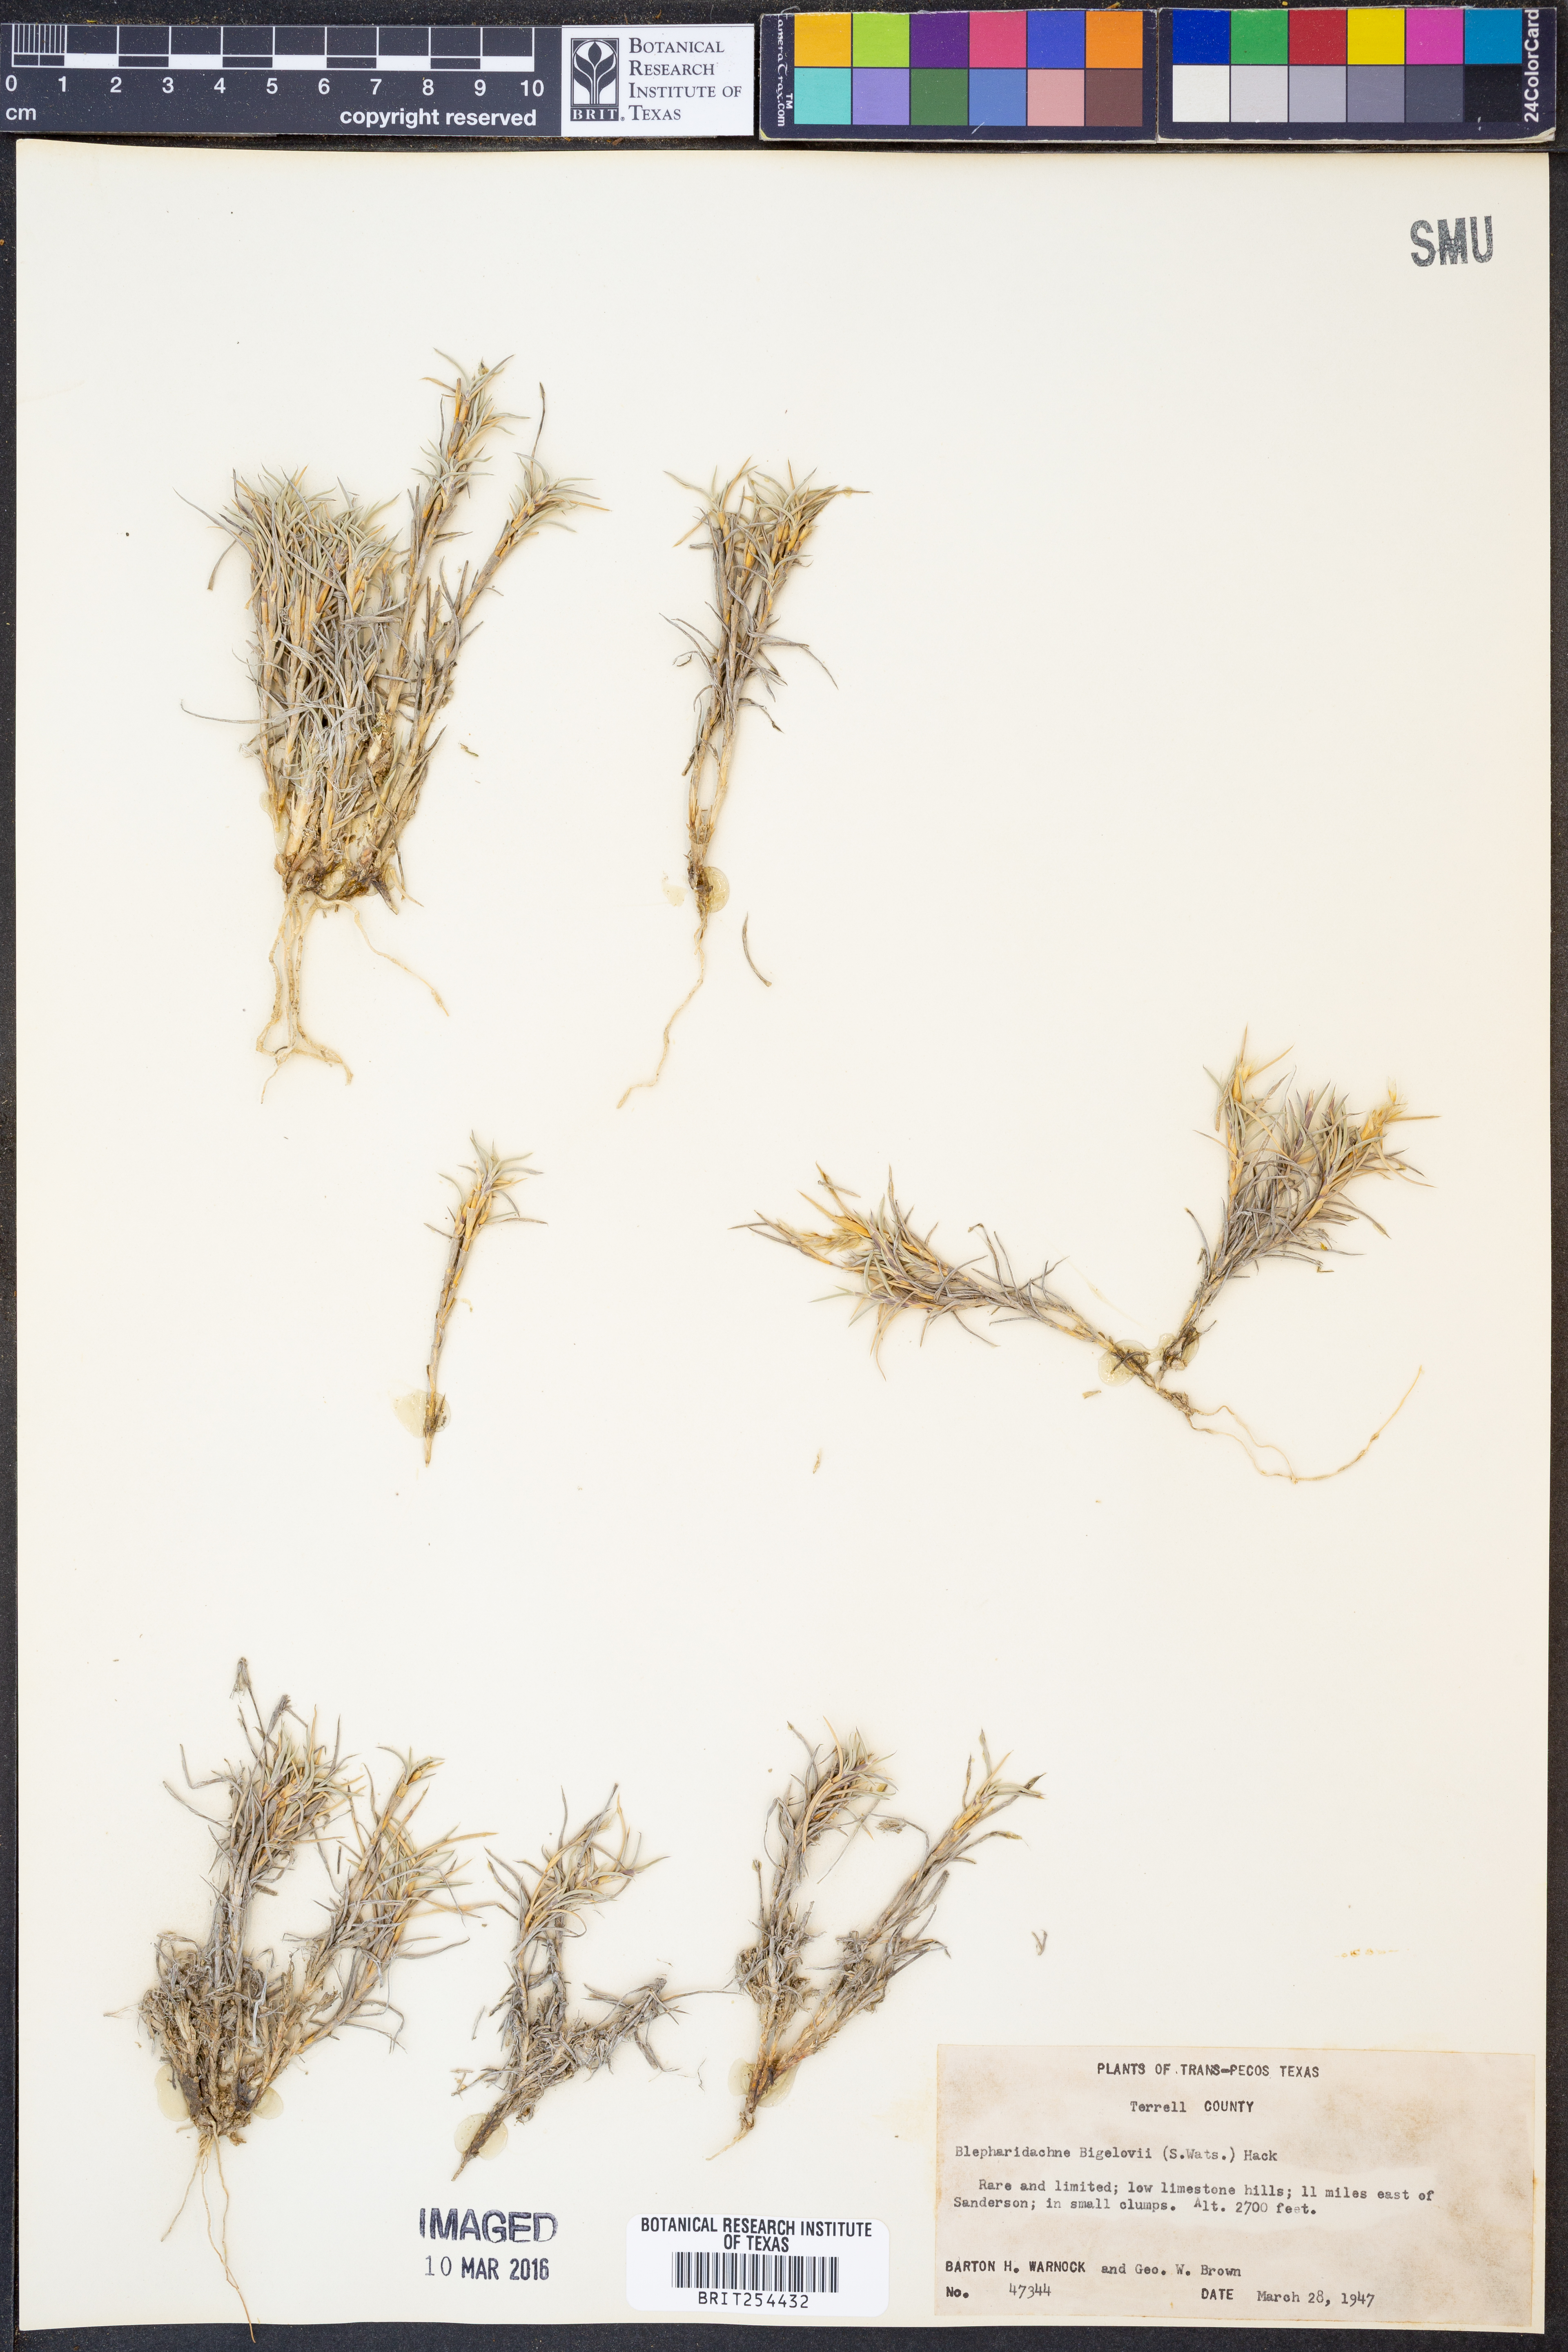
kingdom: Plantae
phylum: Tracheophyta
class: Liliopsida
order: Poales
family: Poaceae
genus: Blepharidachne
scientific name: Blepharidachne bigelovii
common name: Bigelow's desert grass
